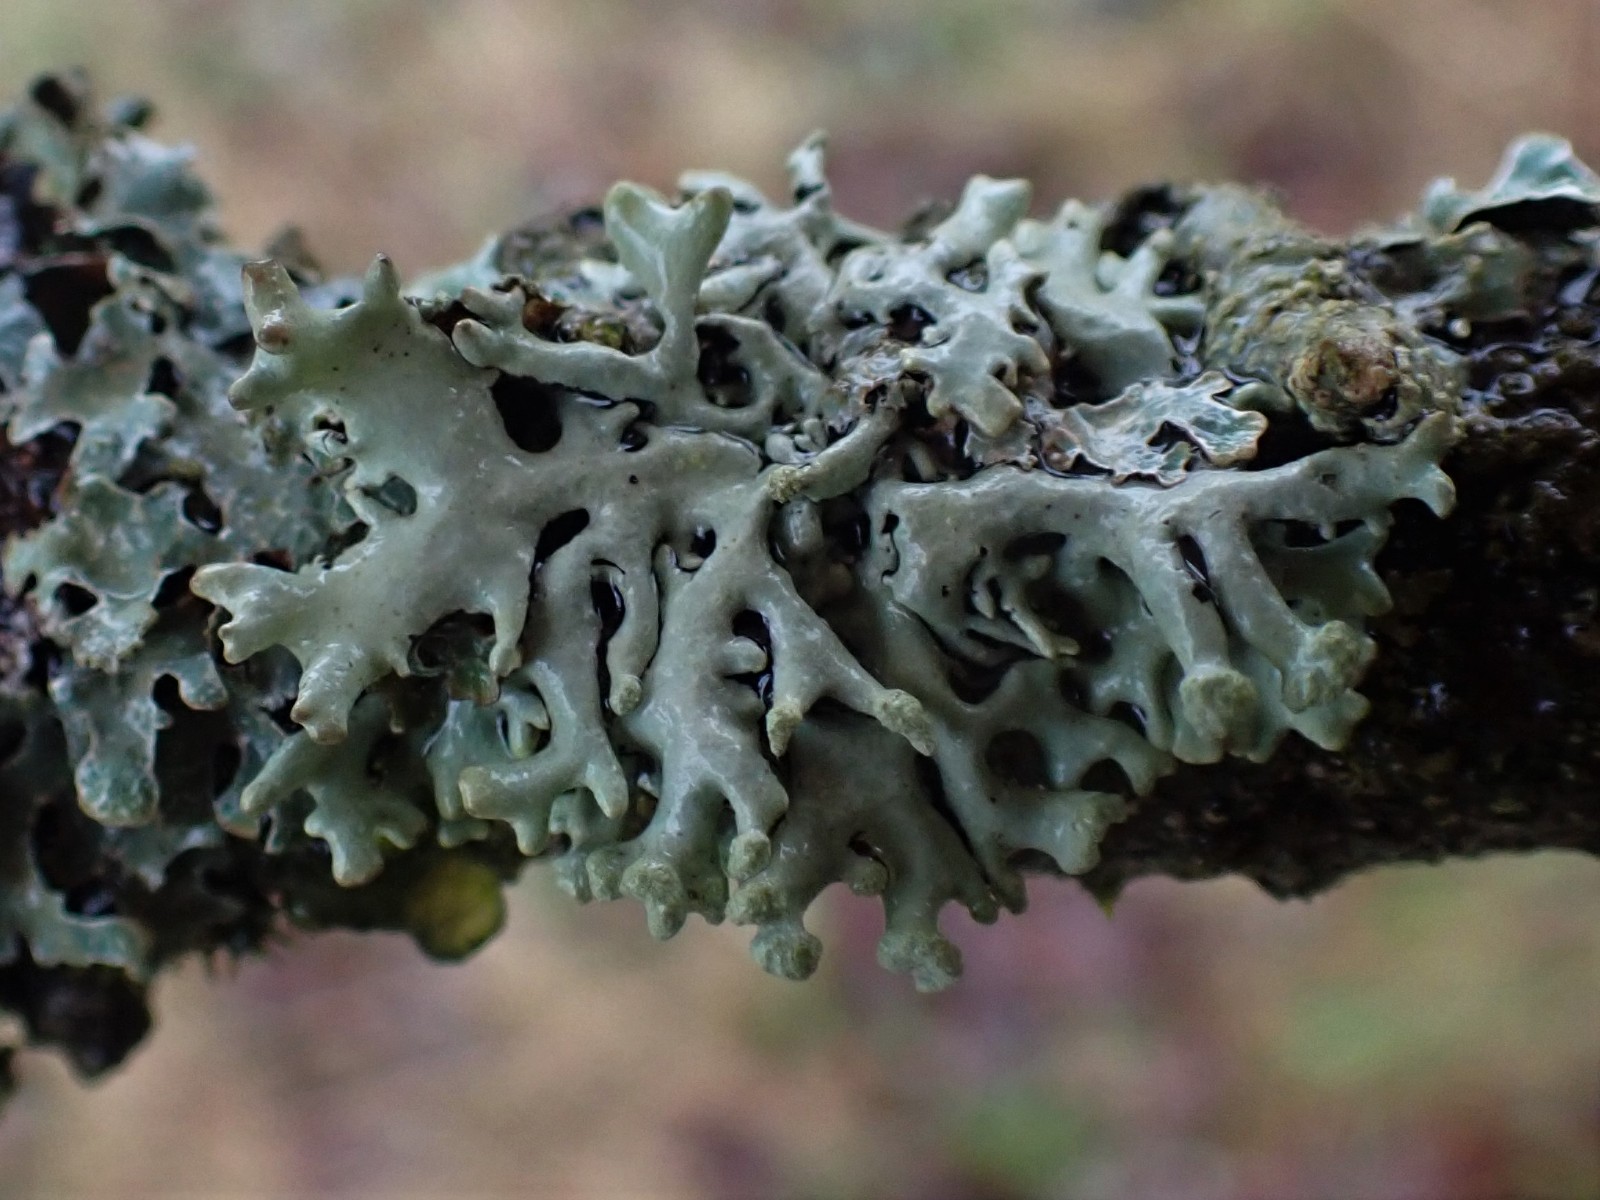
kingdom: Fungi
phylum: Ascomycota
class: Lecanoromycetes
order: Lecanorales
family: Parmeliaceae
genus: Hypogymnia
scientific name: Hypogymnia tubulosa
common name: finger-kvistlav
